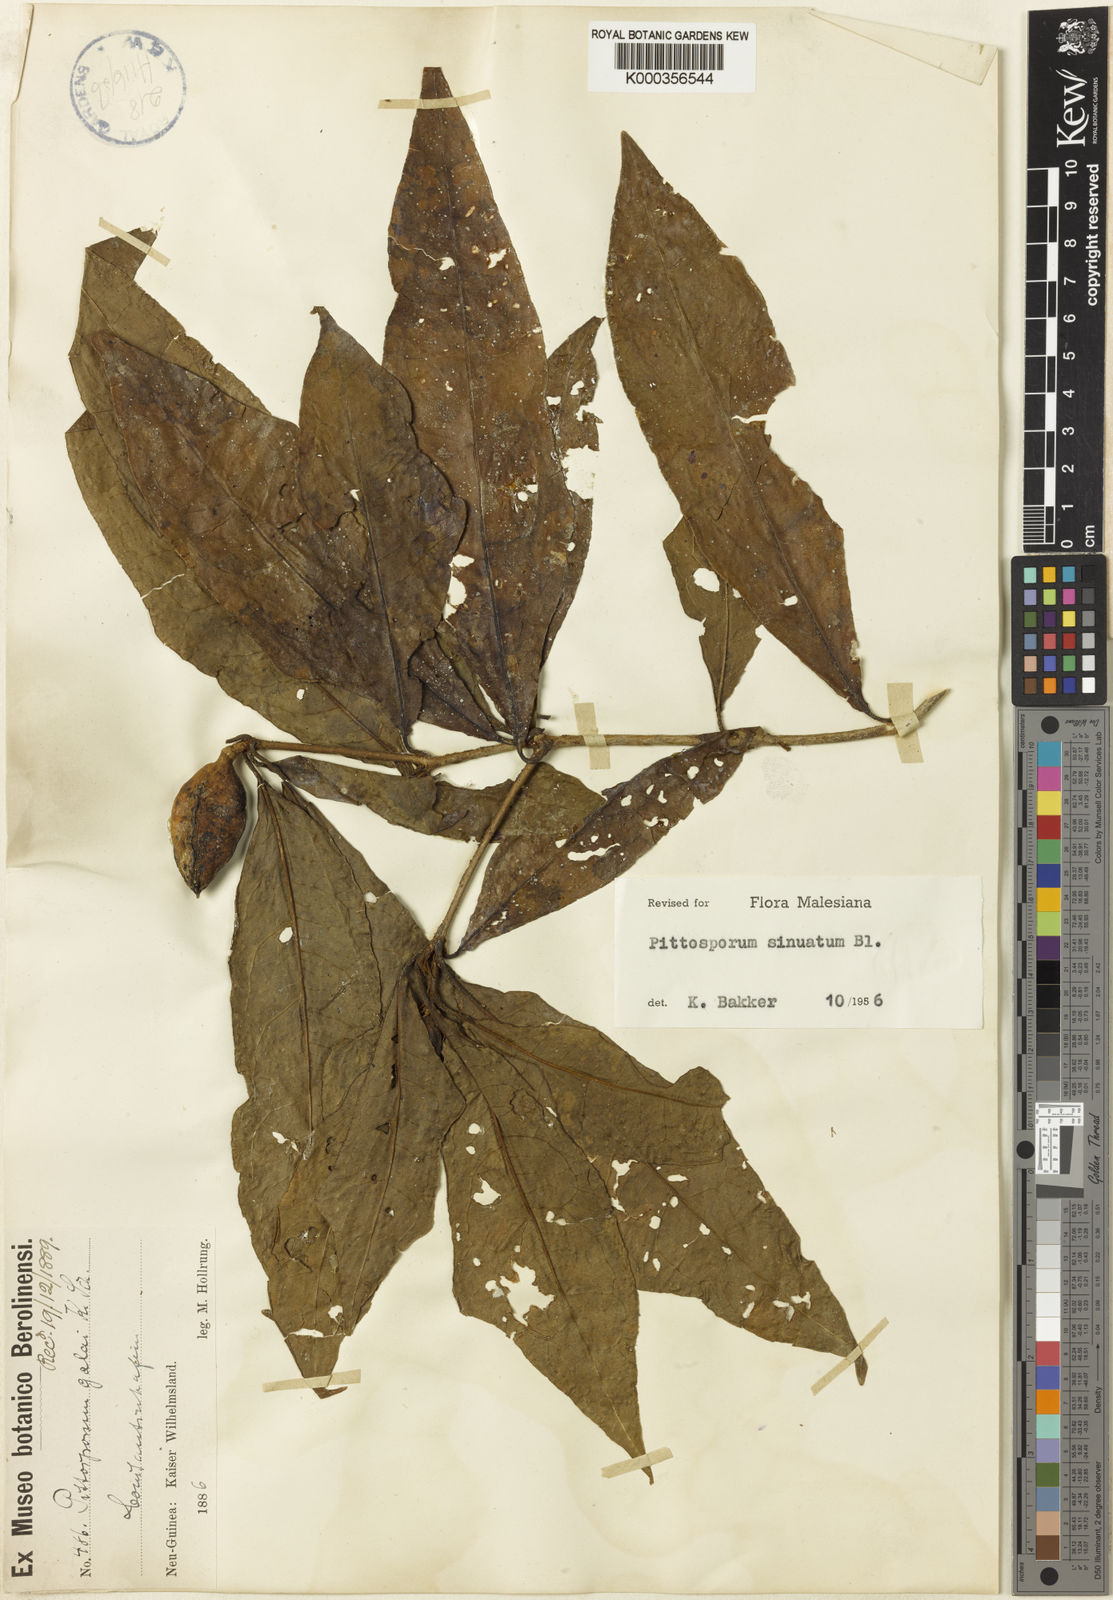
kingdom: Plantae
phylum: Tracheophyta
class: Magnoliopsida
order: Apiales
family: Pittosporaceae
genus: Pittosporum
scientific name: Pittosporum sinuatum
